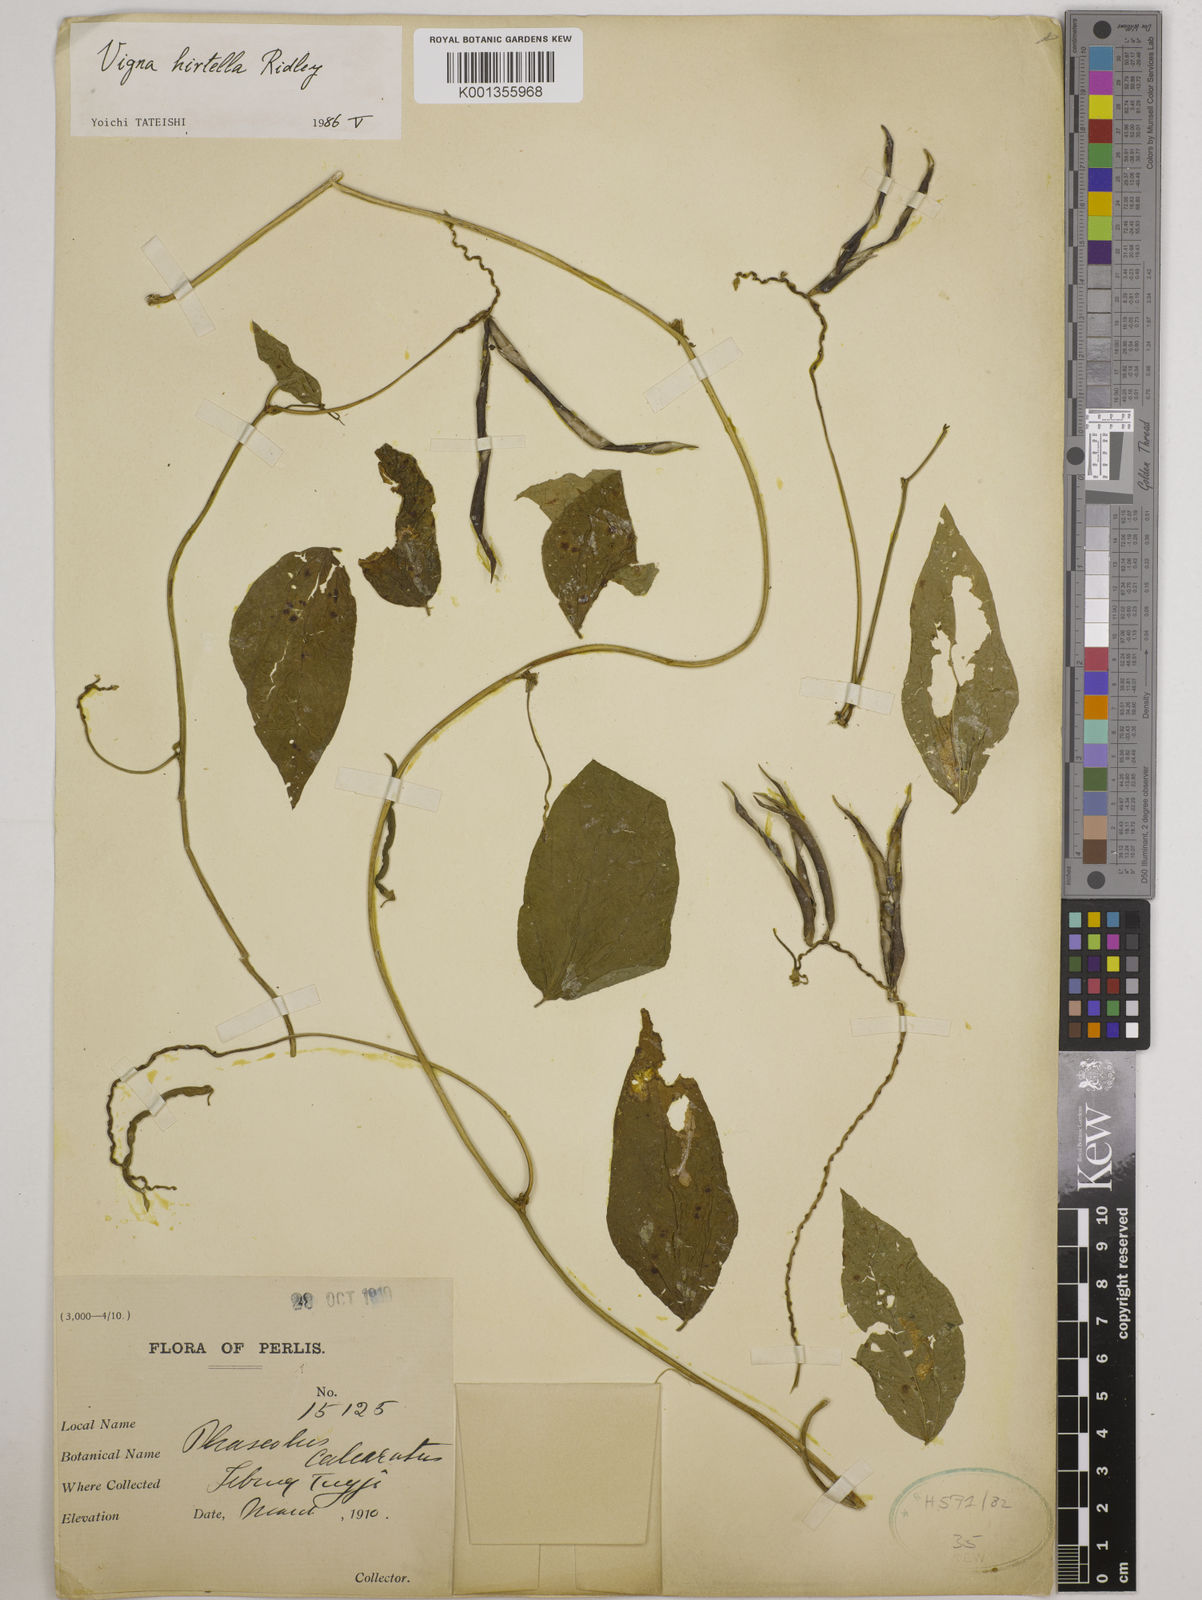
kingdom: Plantae
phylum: Tracheophyta
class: Magnoliopsida
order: Fabales
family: Fabaceae
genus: Vigna
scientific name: Vigna hirtella
